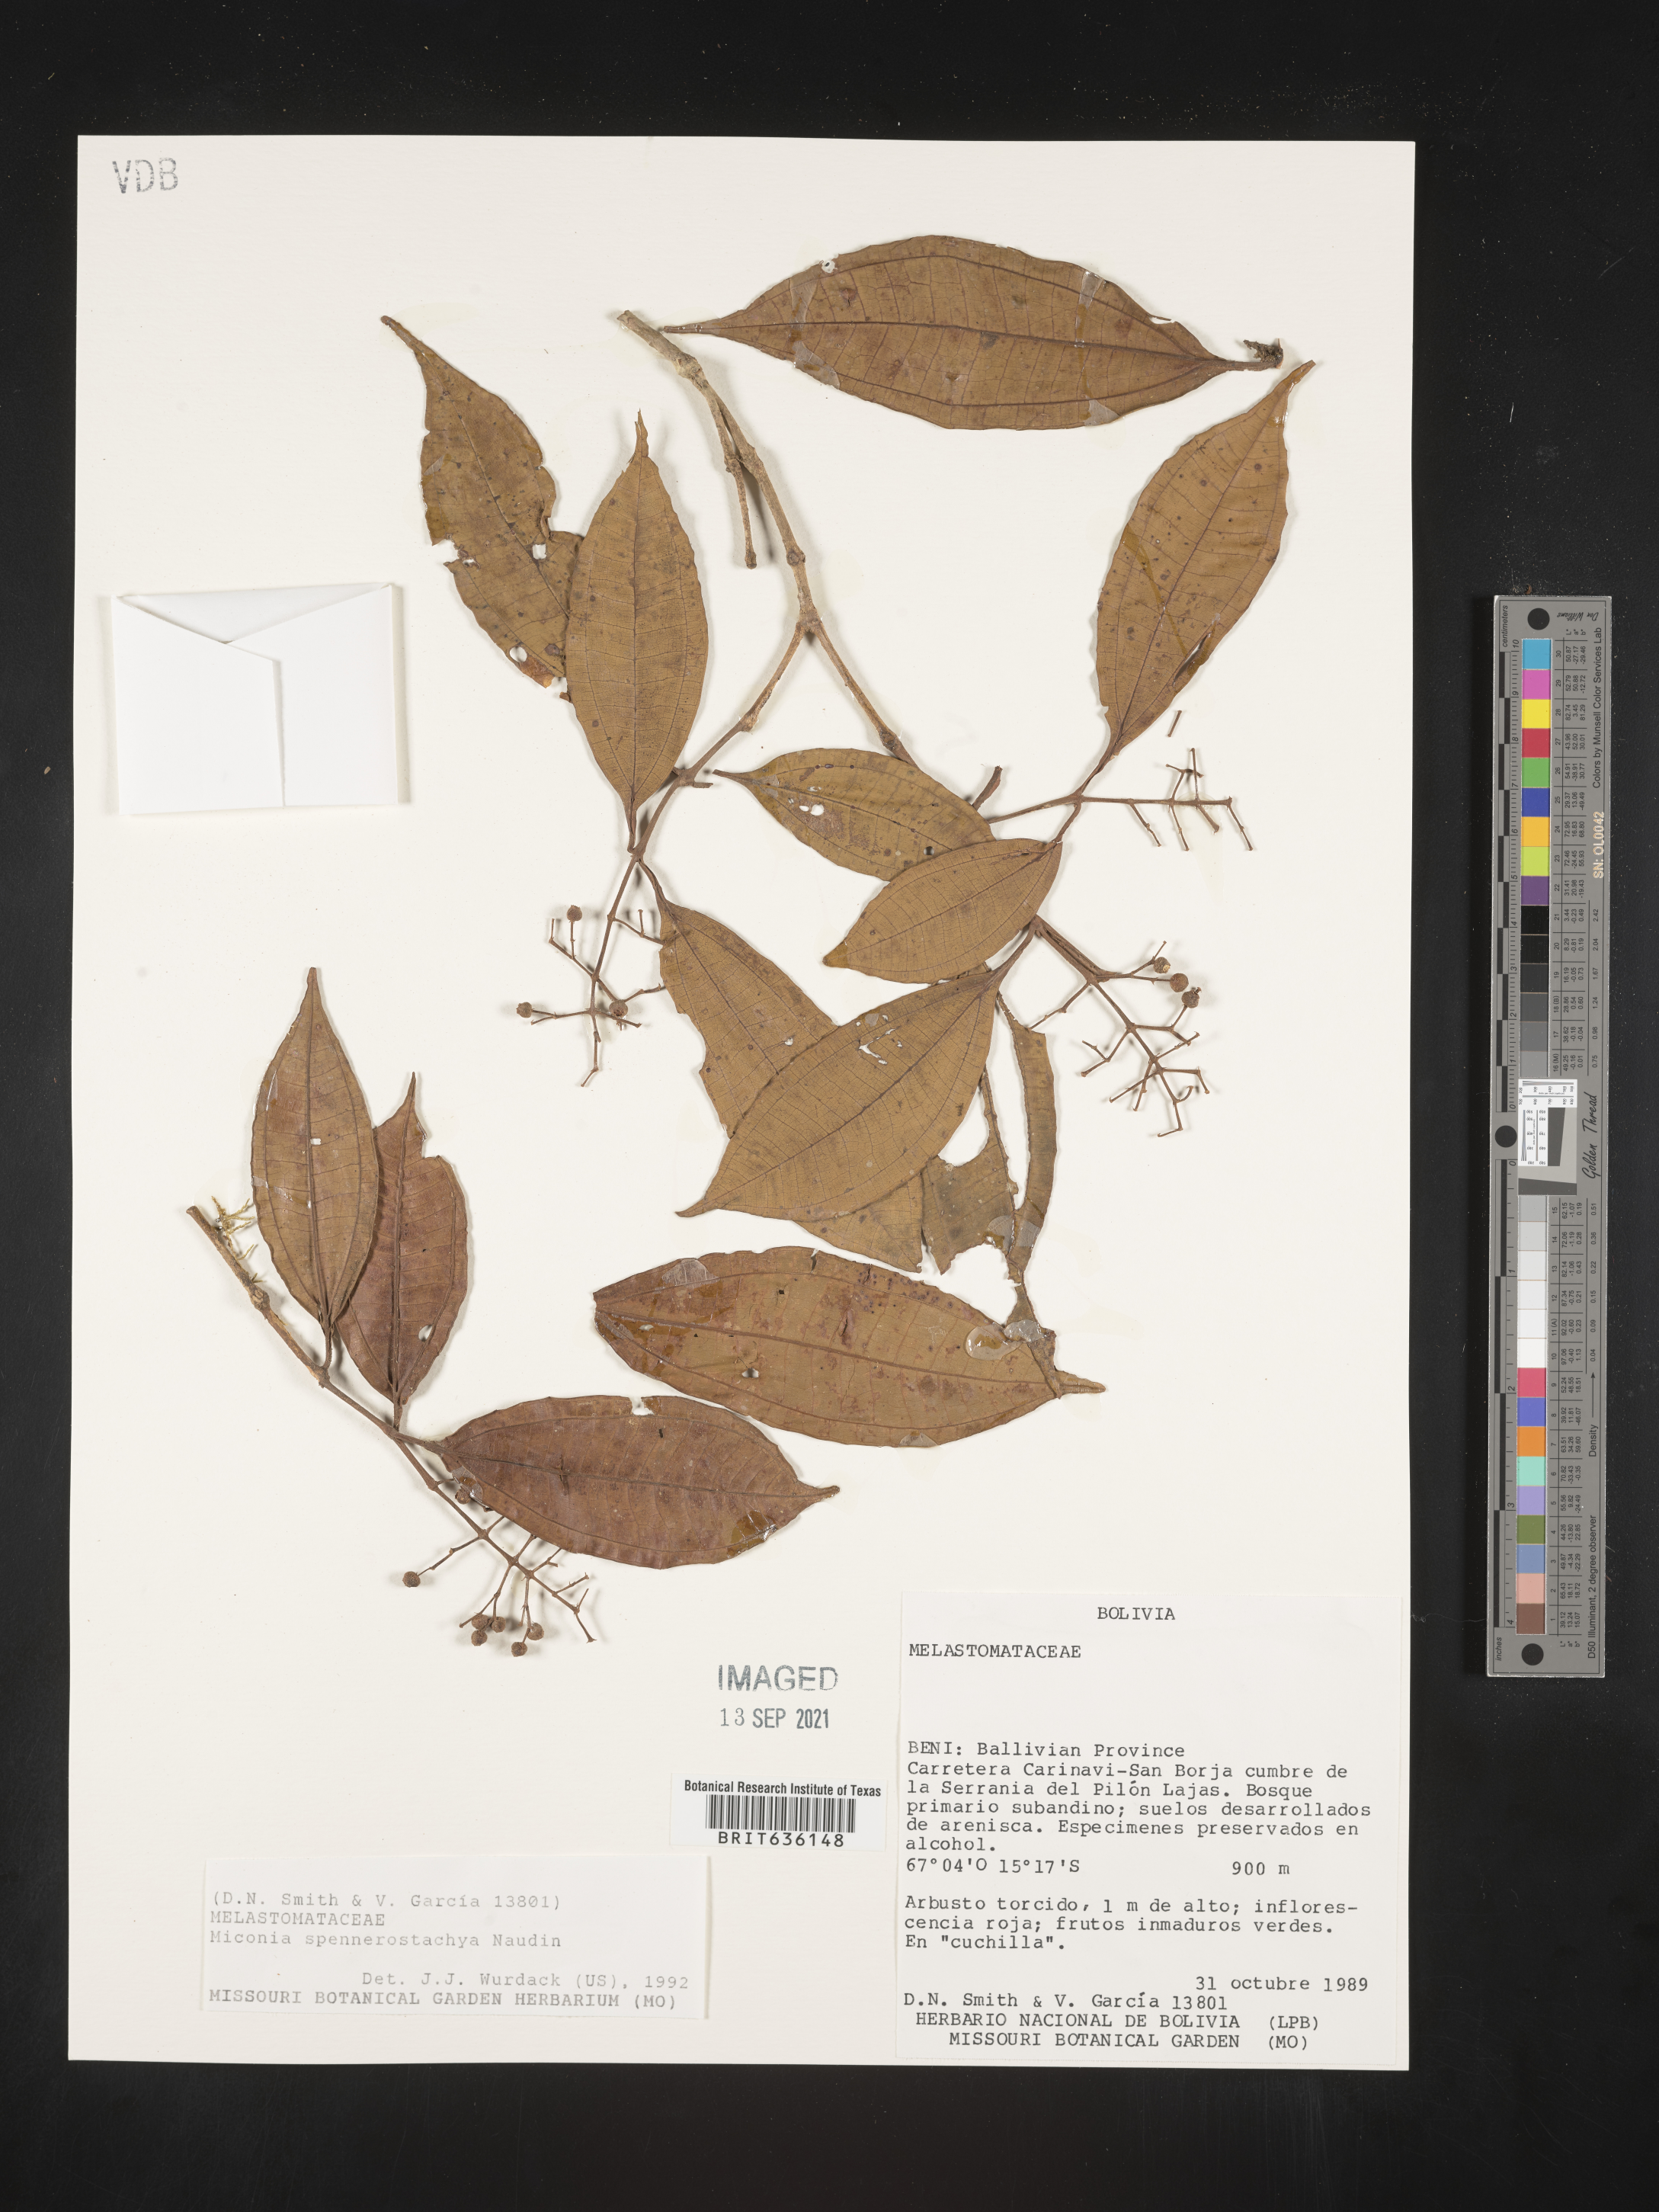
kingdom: Plantae
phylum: Tracheophyta
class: Magnoliopsida
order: Myrtales
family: Melastomataceae
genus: Miconia
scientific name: Miconia
